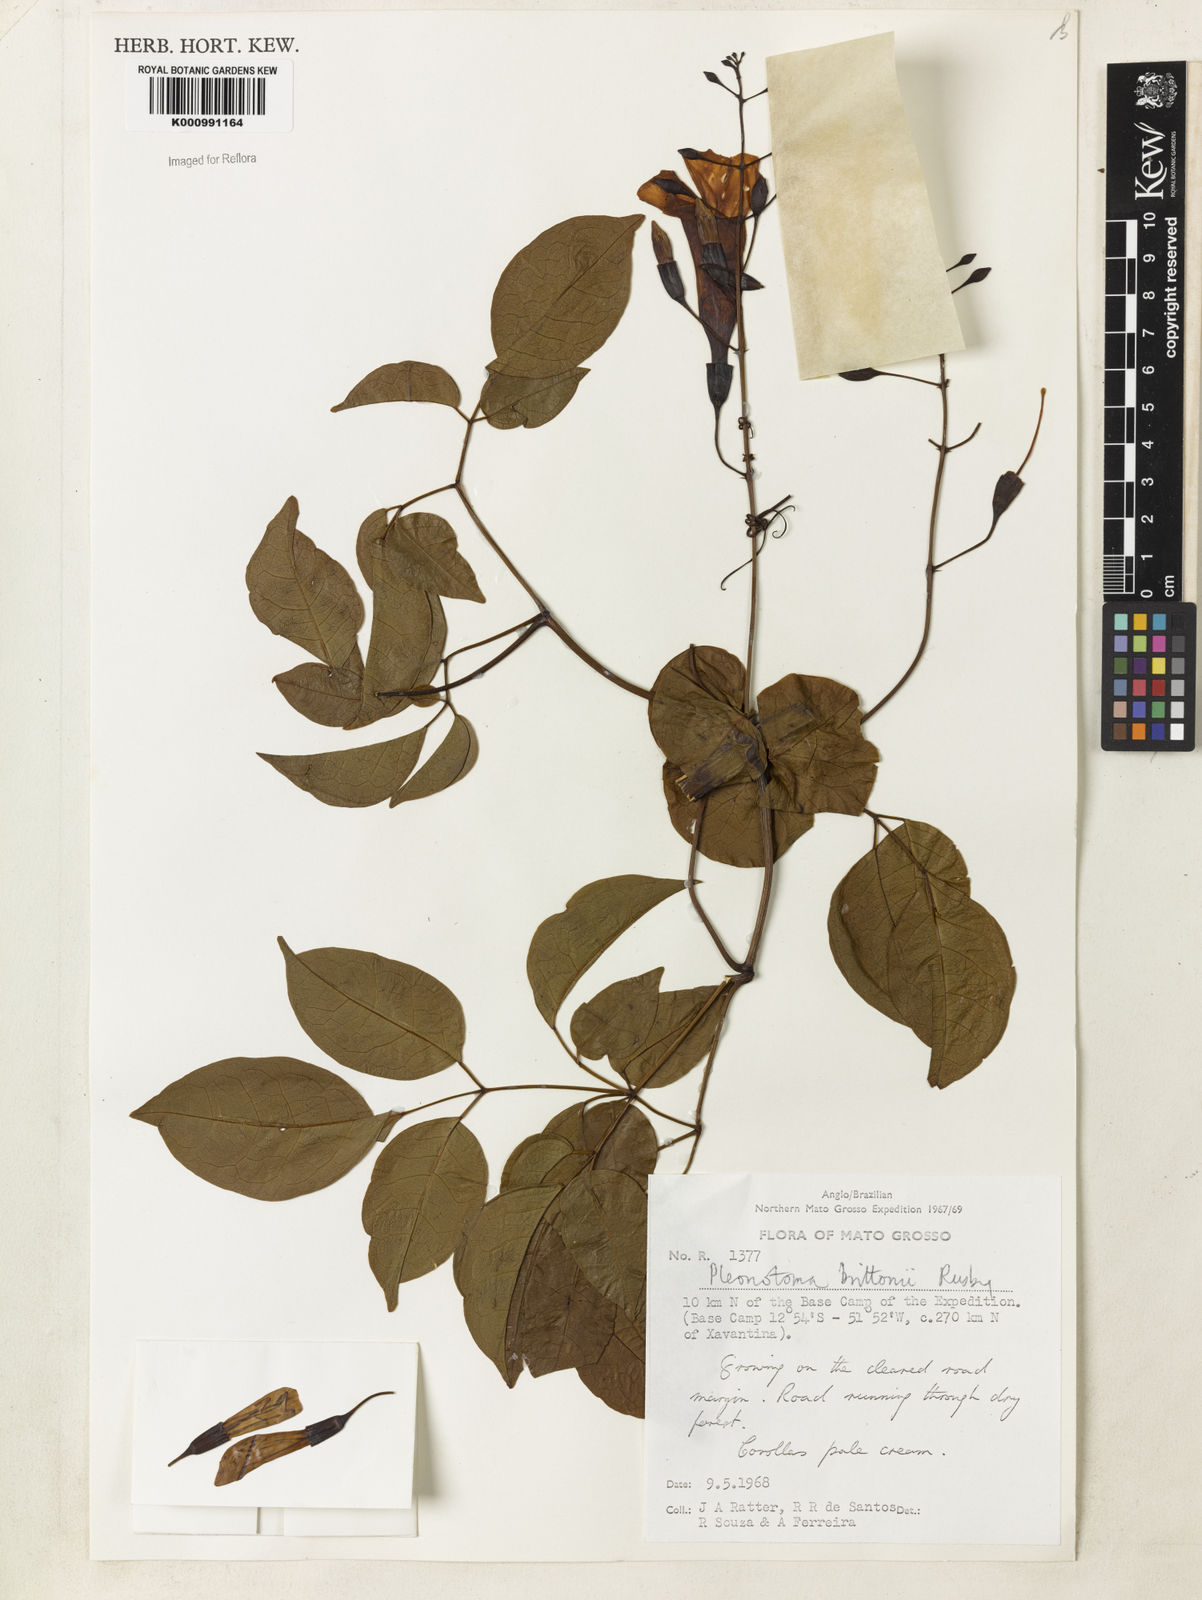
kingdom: Plantae
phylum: Tracheophyta
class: Magnoliopsida
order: Lamiales
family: Bignoniaceae
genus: Pleonotoma
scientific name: Pleonotoma jasminifolia
